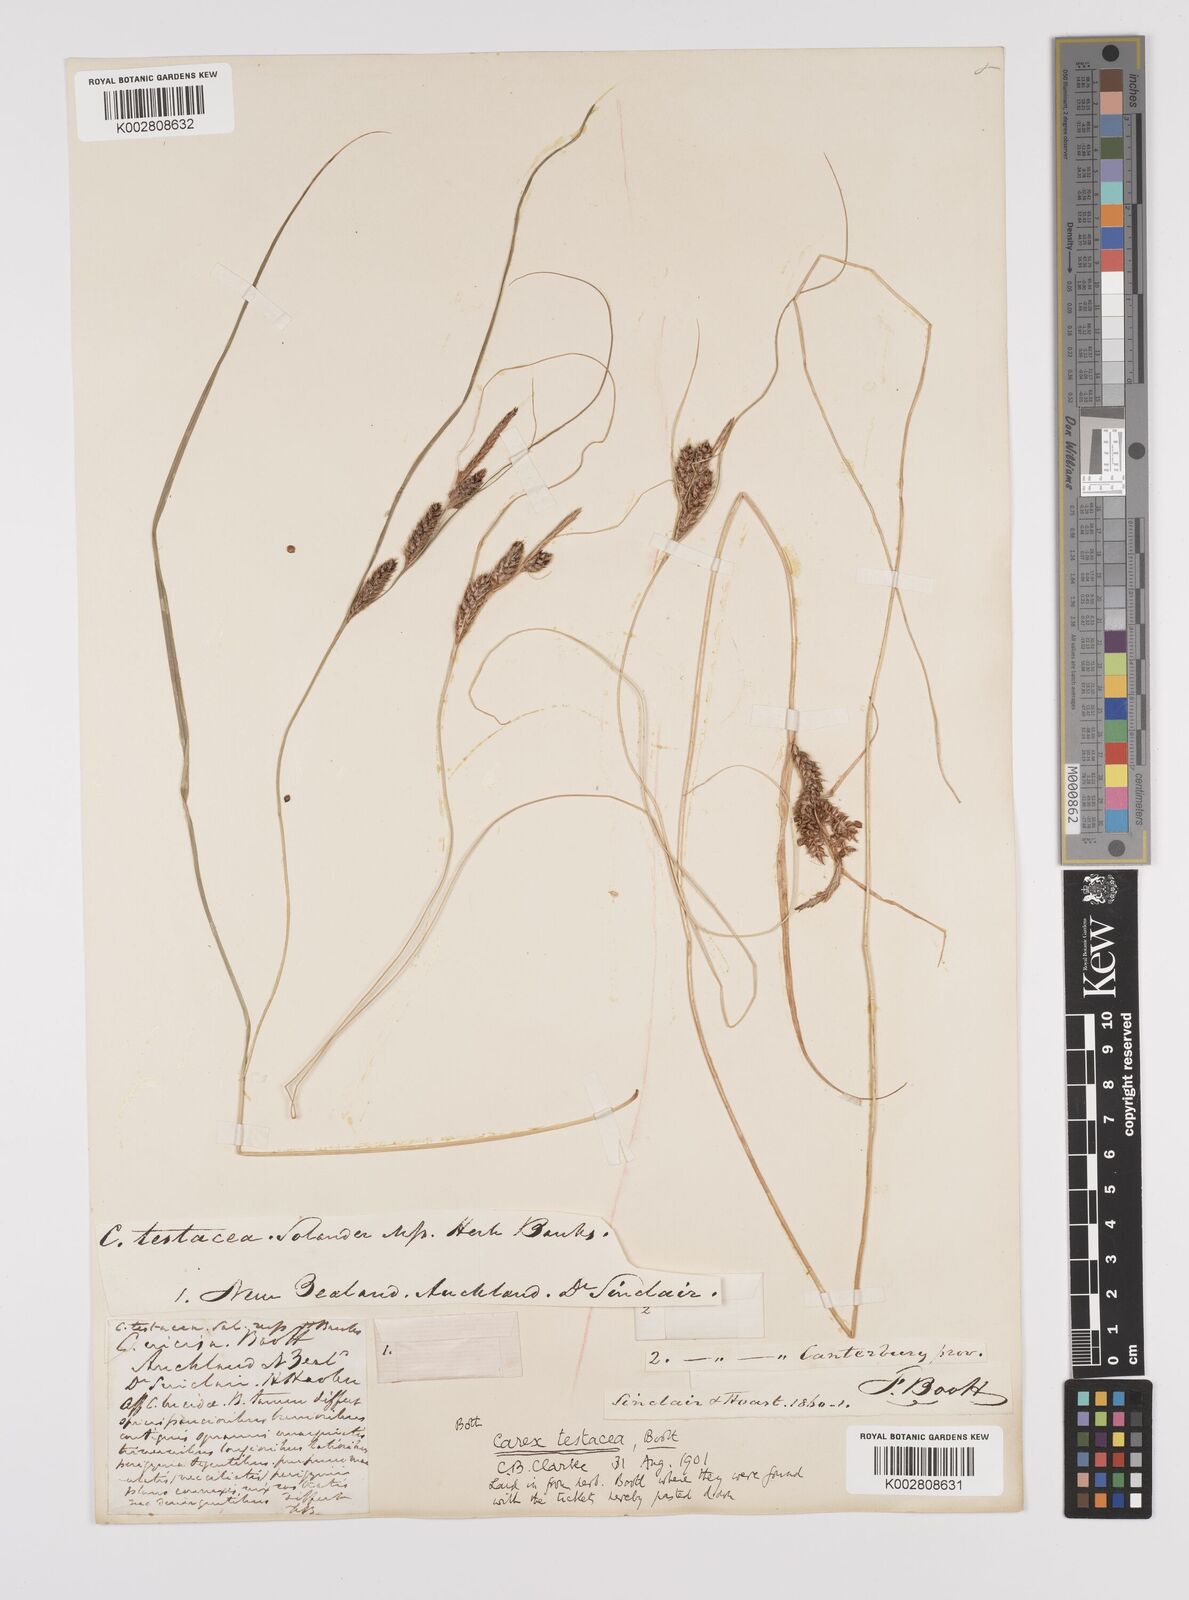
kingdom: Plantae
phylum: Tracheophyta
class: Liliopsida
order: Poales
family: Cyperaceae
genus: Carex
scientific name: Carex testacea
